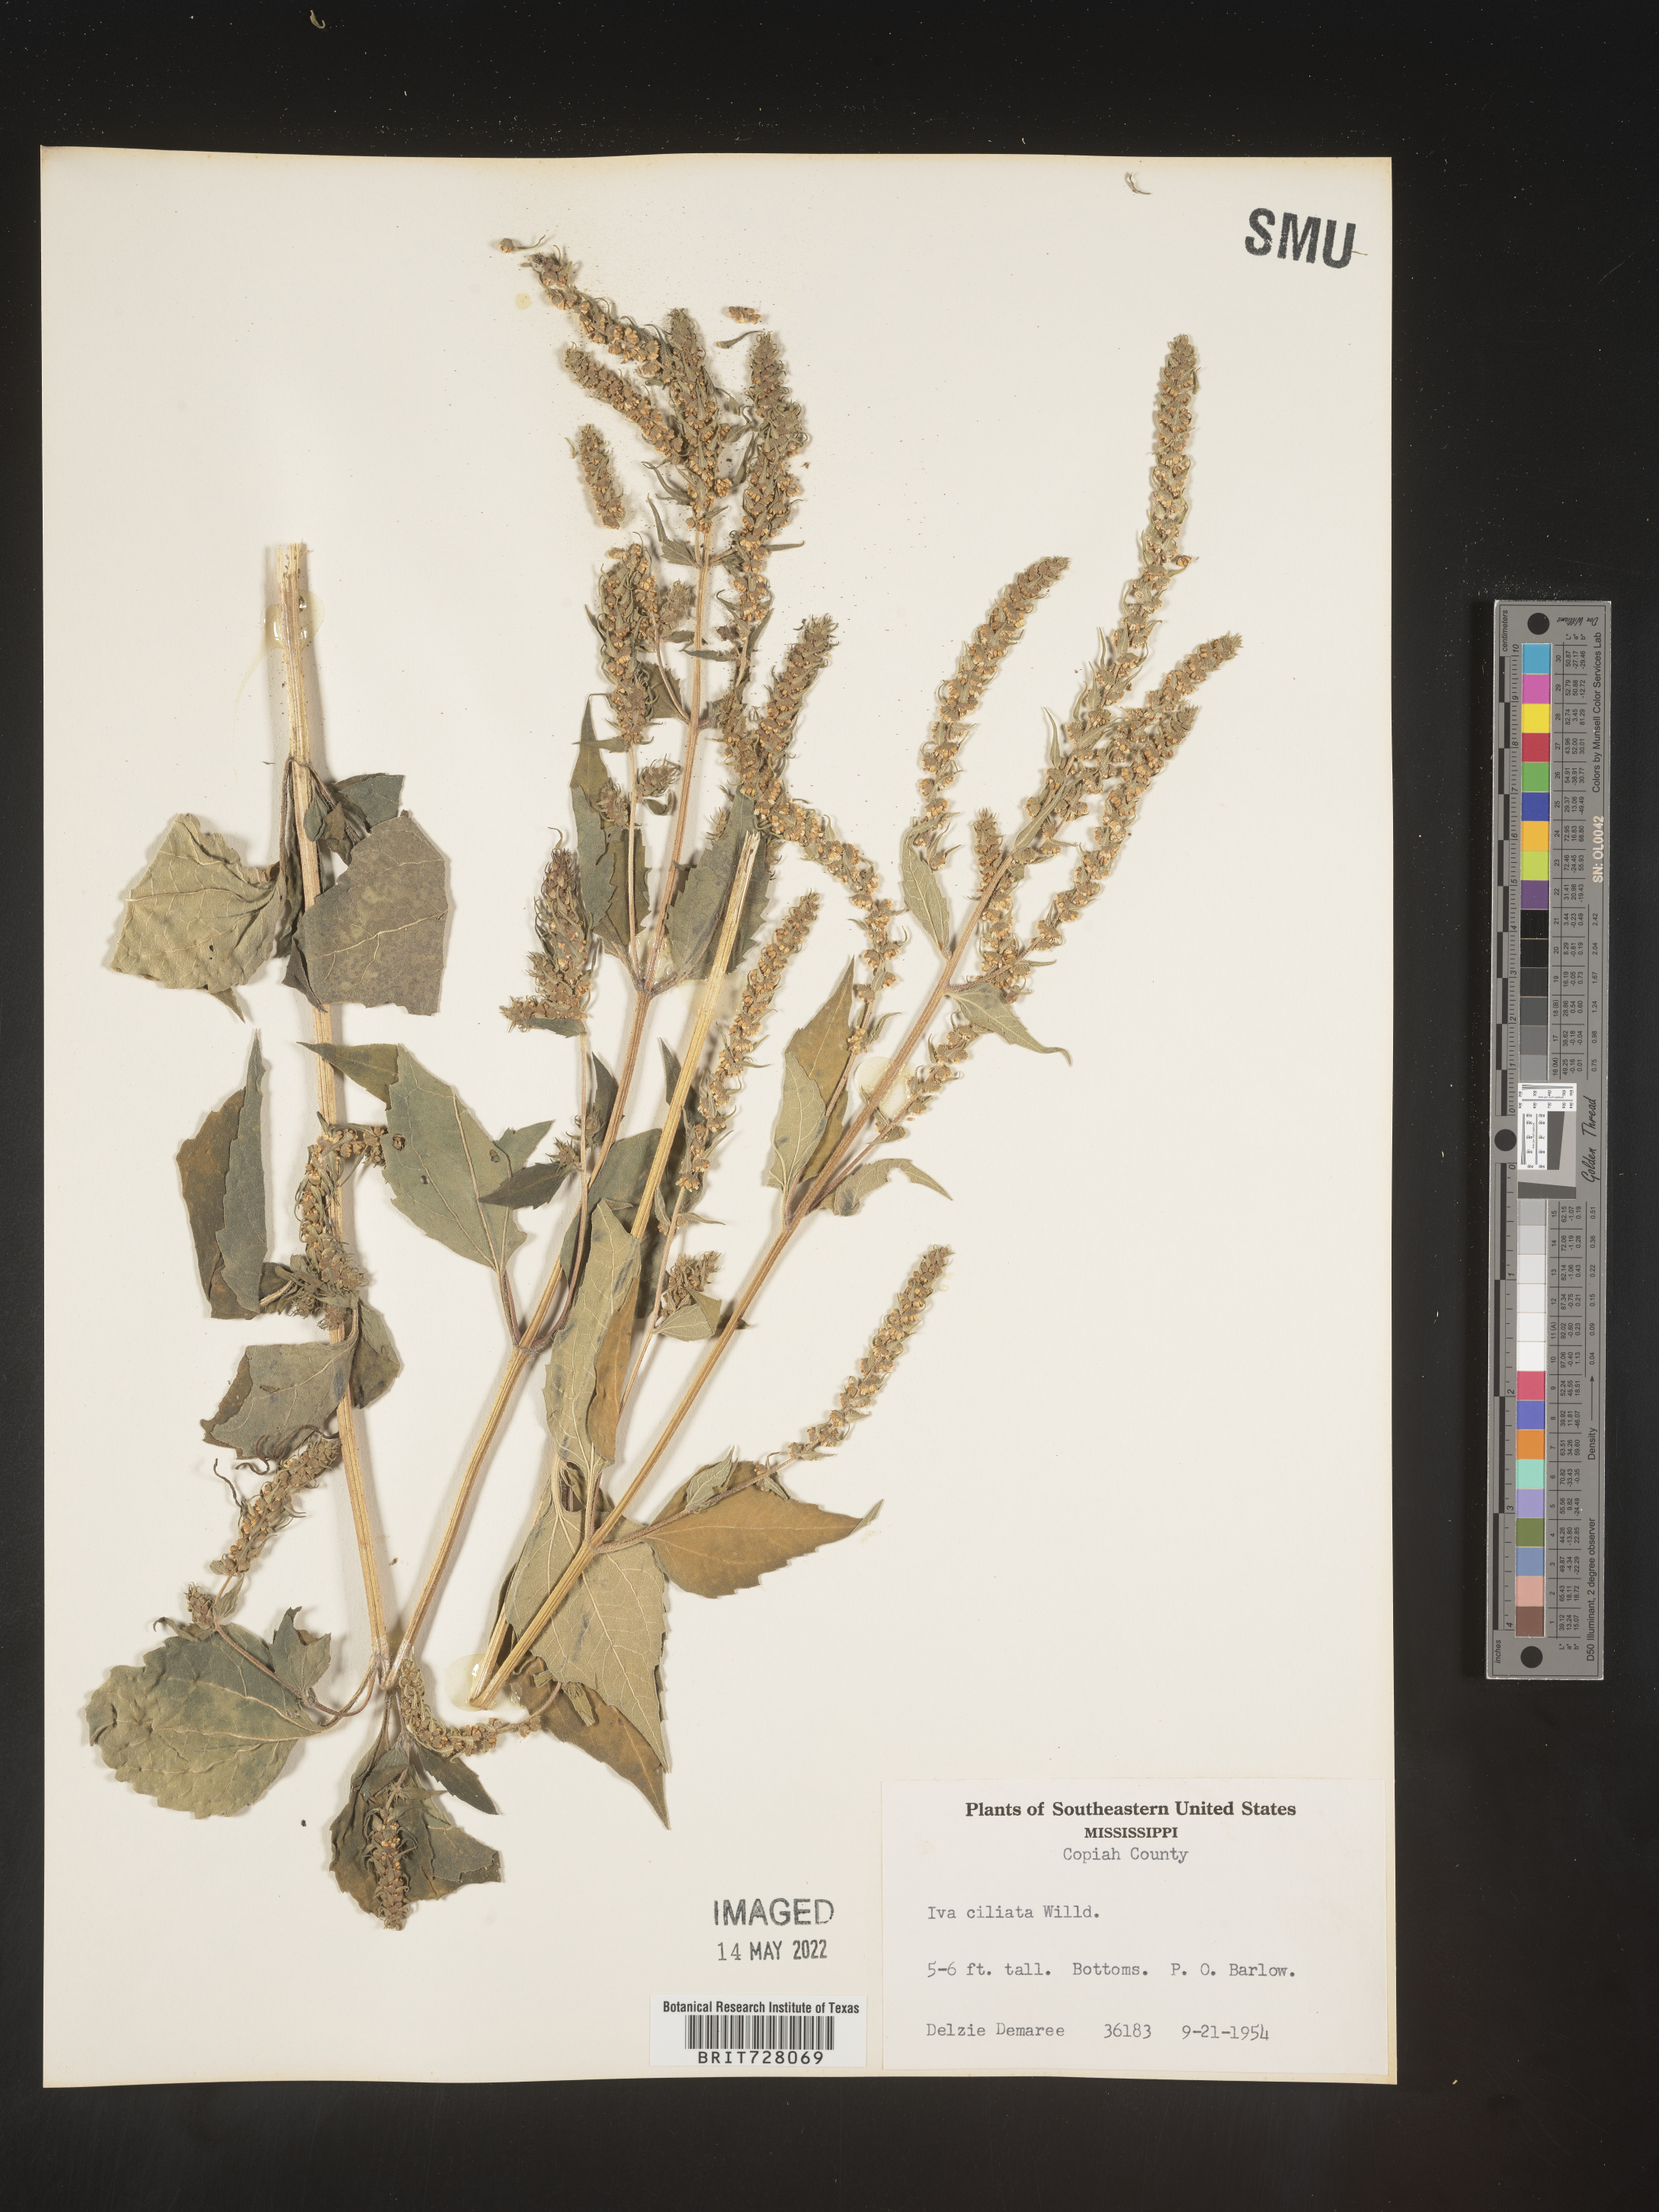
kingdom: Plantae
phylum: Tracheophyta
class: Magnoliopsida
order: Asterales
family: Asteraceae
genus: Iva
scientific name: Iva annua
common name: Marsh-elder
